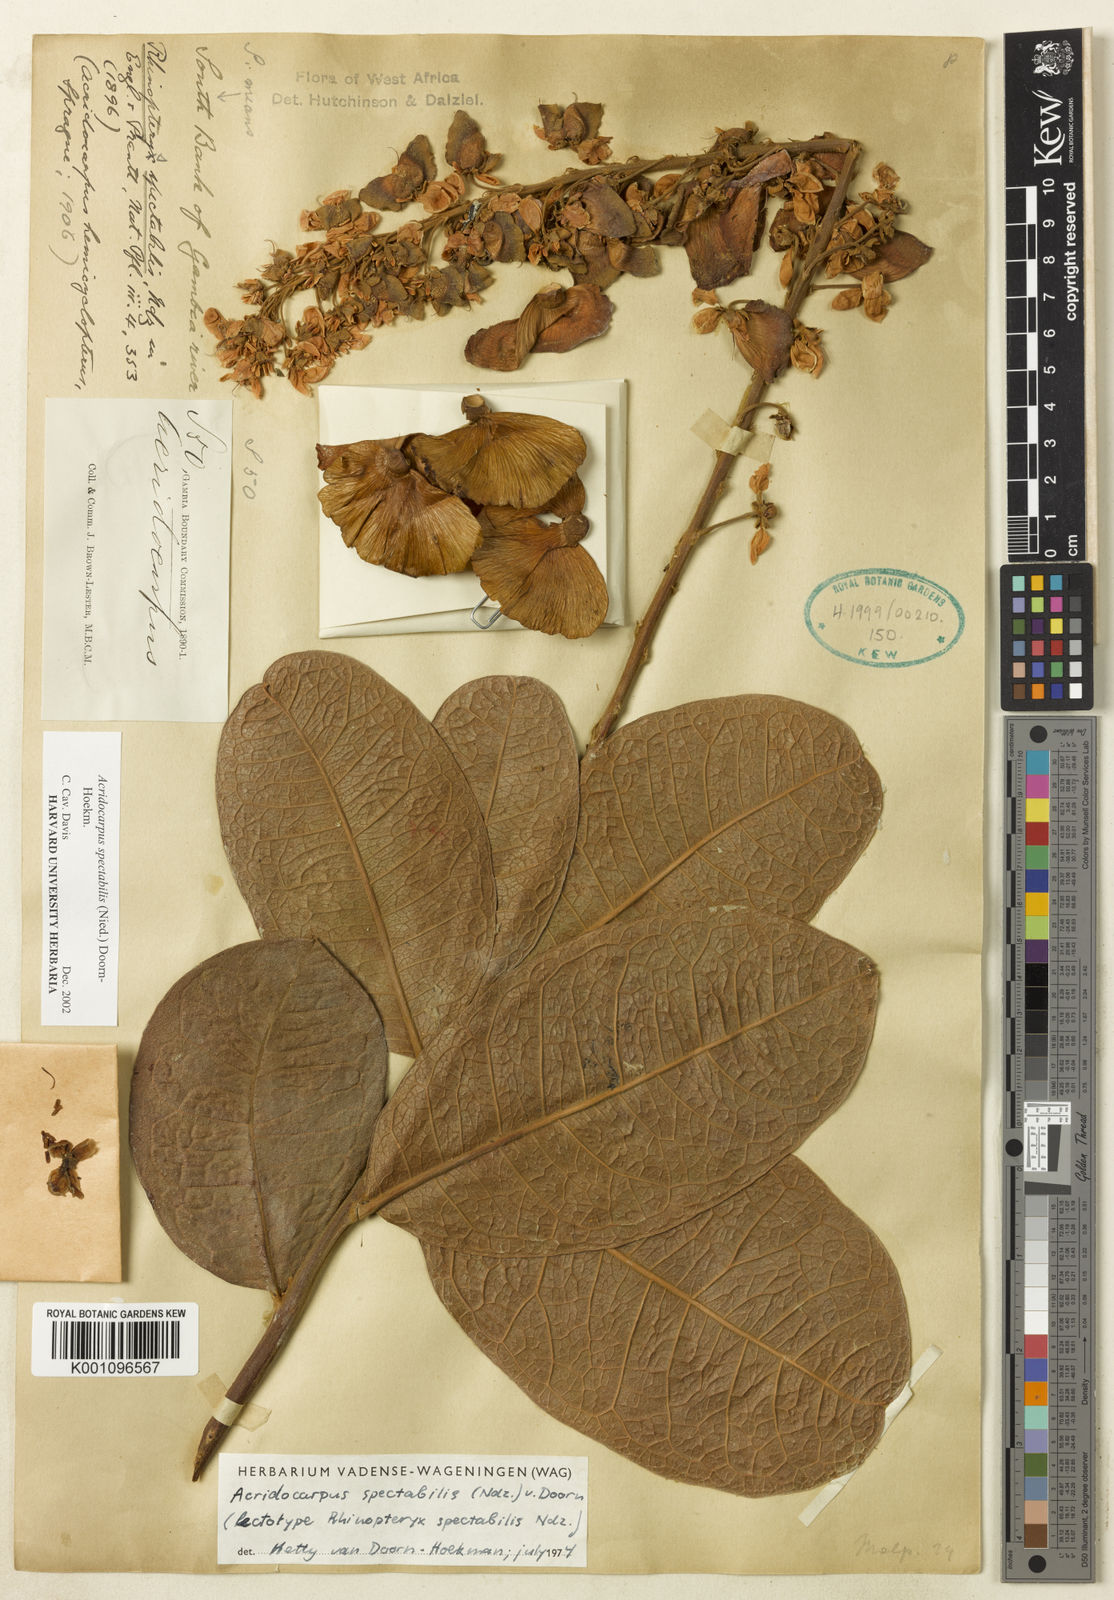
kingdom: Plantae
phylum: Tracheophyta
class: Magnoliopsida
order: Malpighiales
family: Malpighiaceae
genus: Acridocarpus
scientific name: Acridocarpus spectabilis
